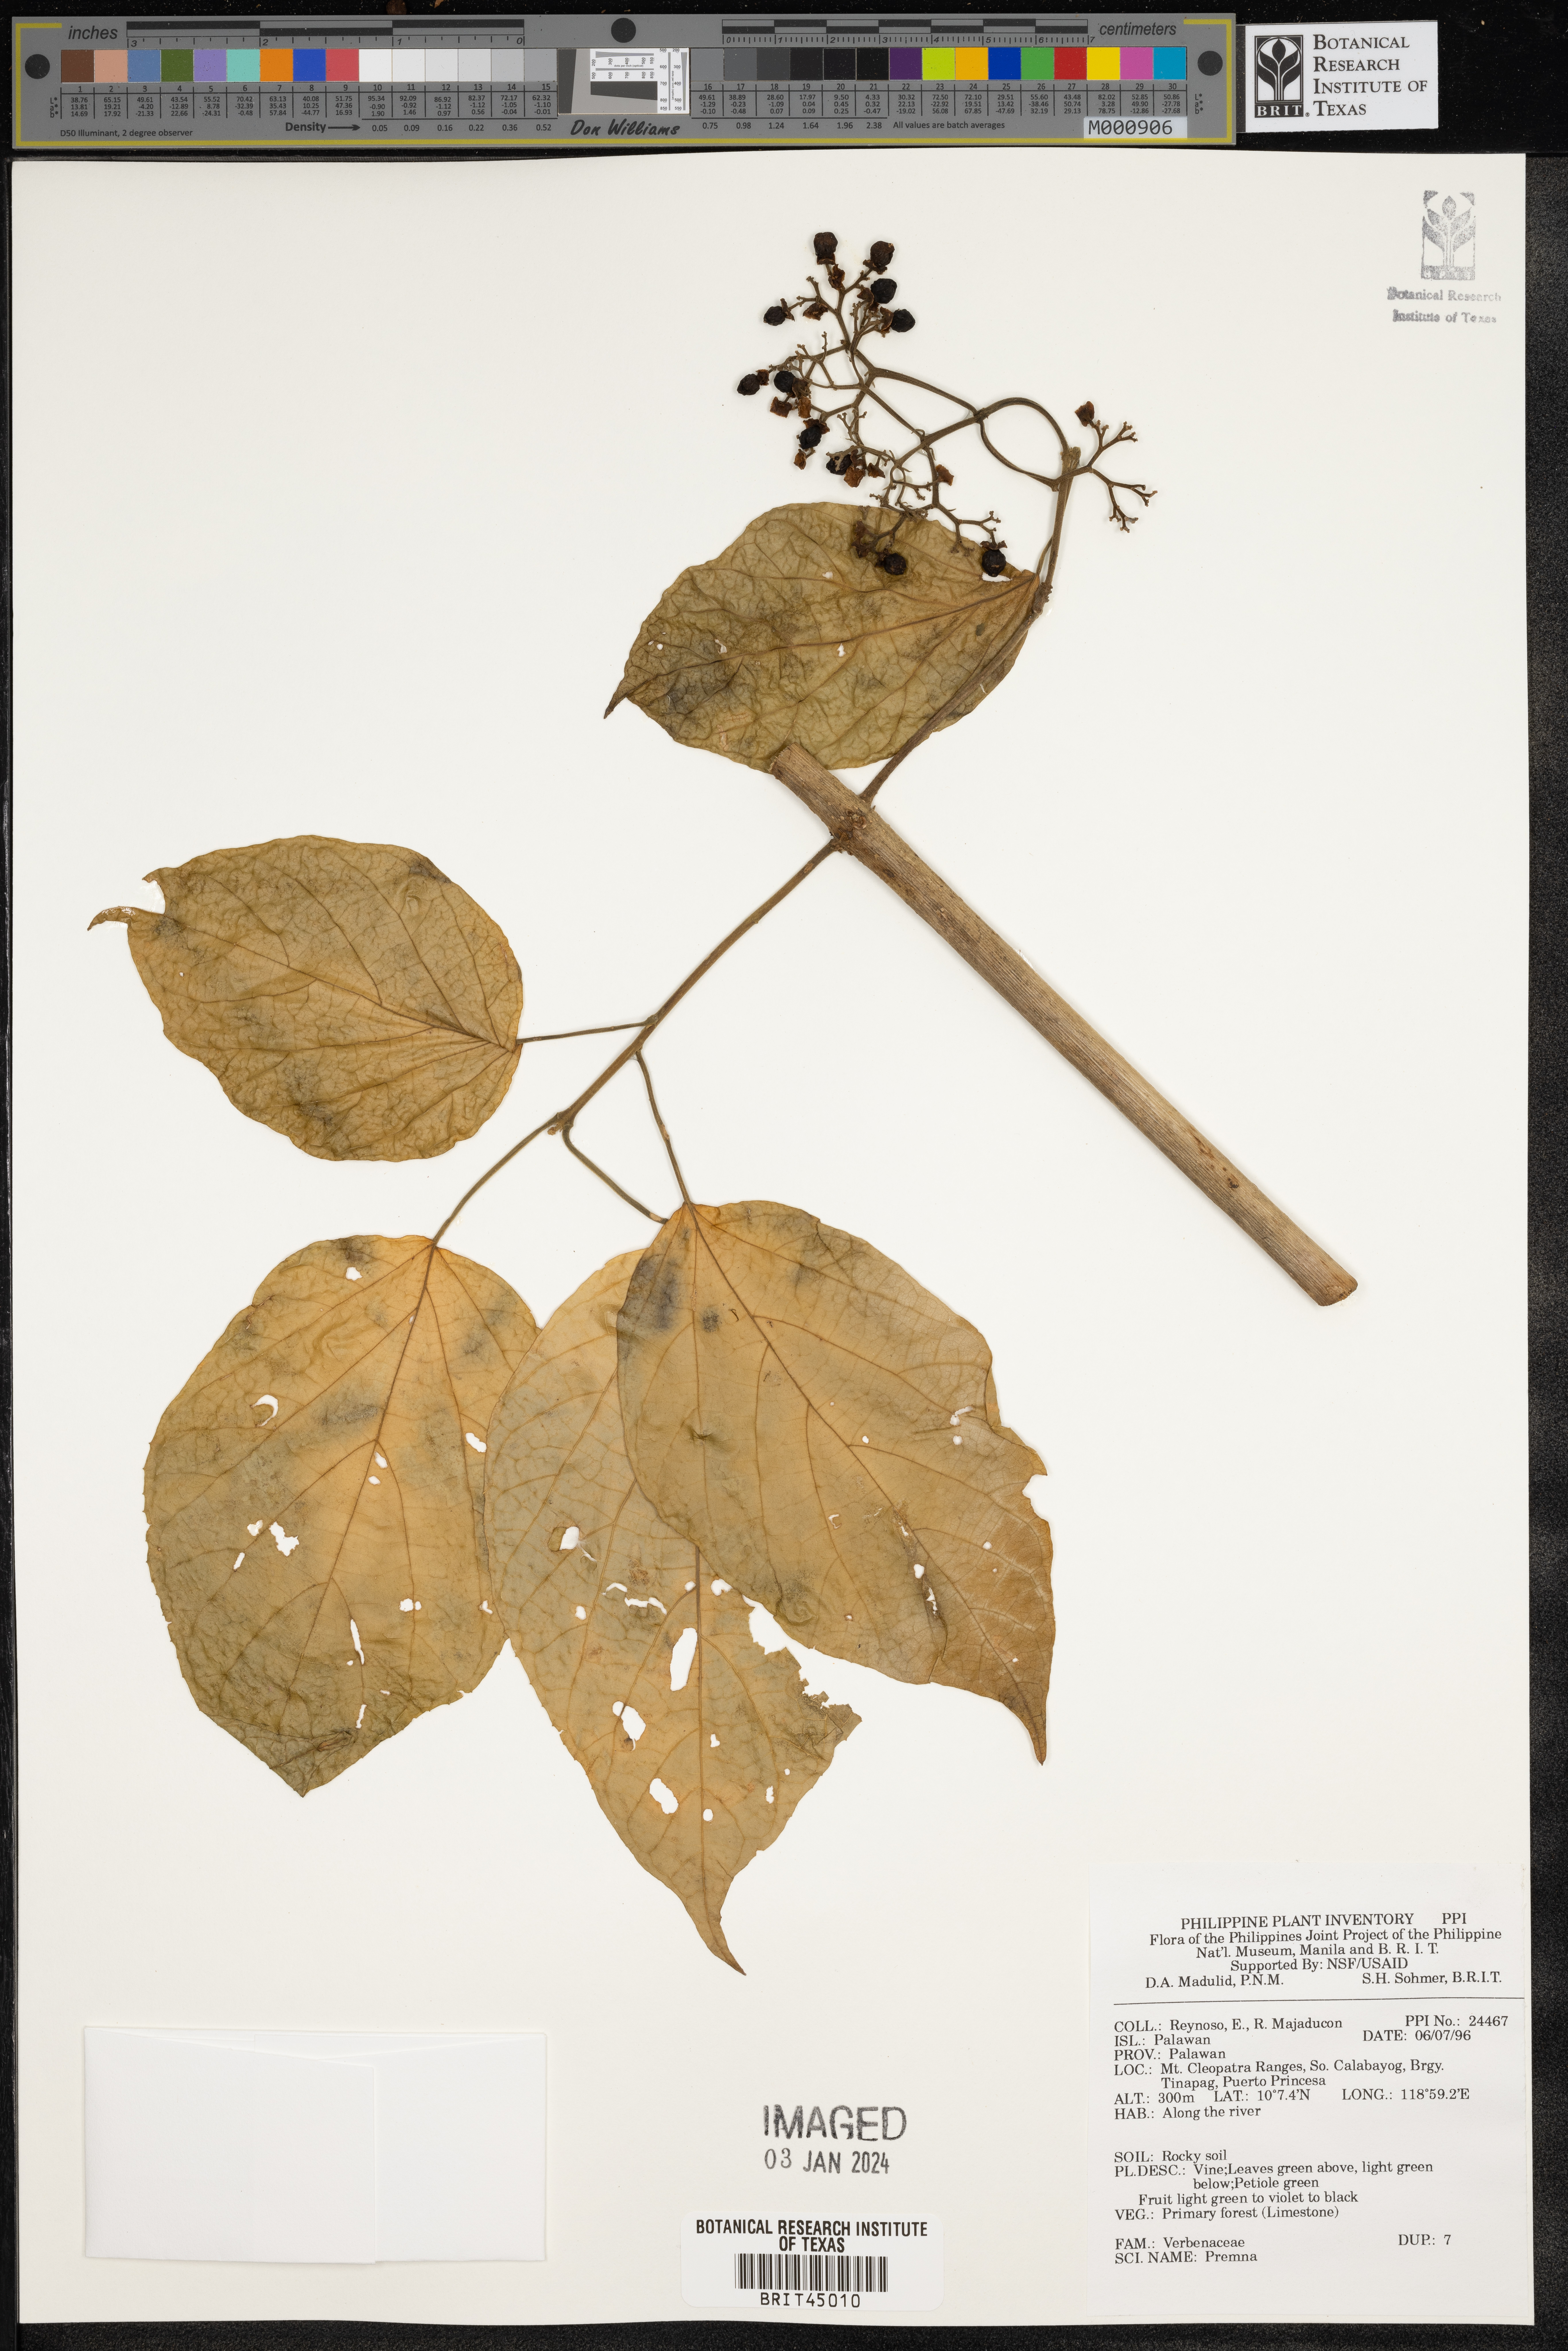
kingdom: Plantae
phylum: Tracheophyta
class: Polypodiopsida
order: Polypodiales
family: Woodsiaceae
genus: Physematium
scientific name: Physematium obtusum
